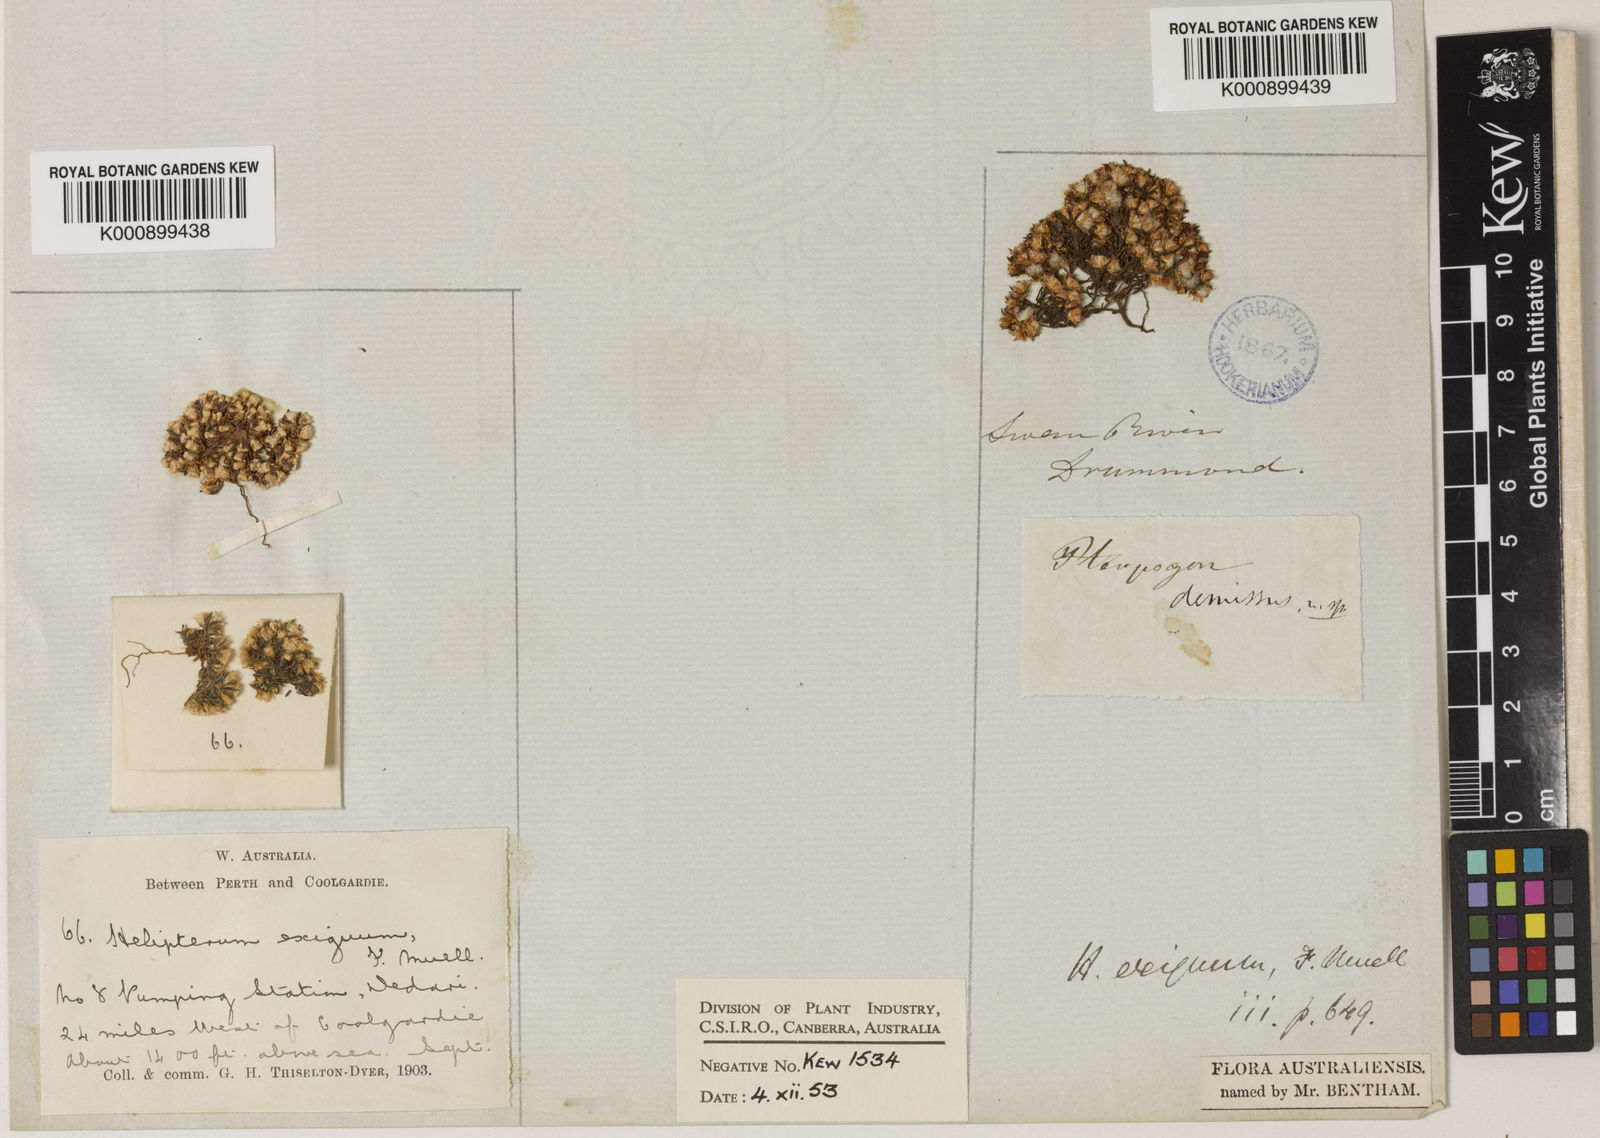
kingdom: Plantae
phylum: Tracheophyta
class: Magnoliopsida
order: Asterales
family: Asteraceae
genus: Hyalosperma
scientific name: Hyalosperma demissum
